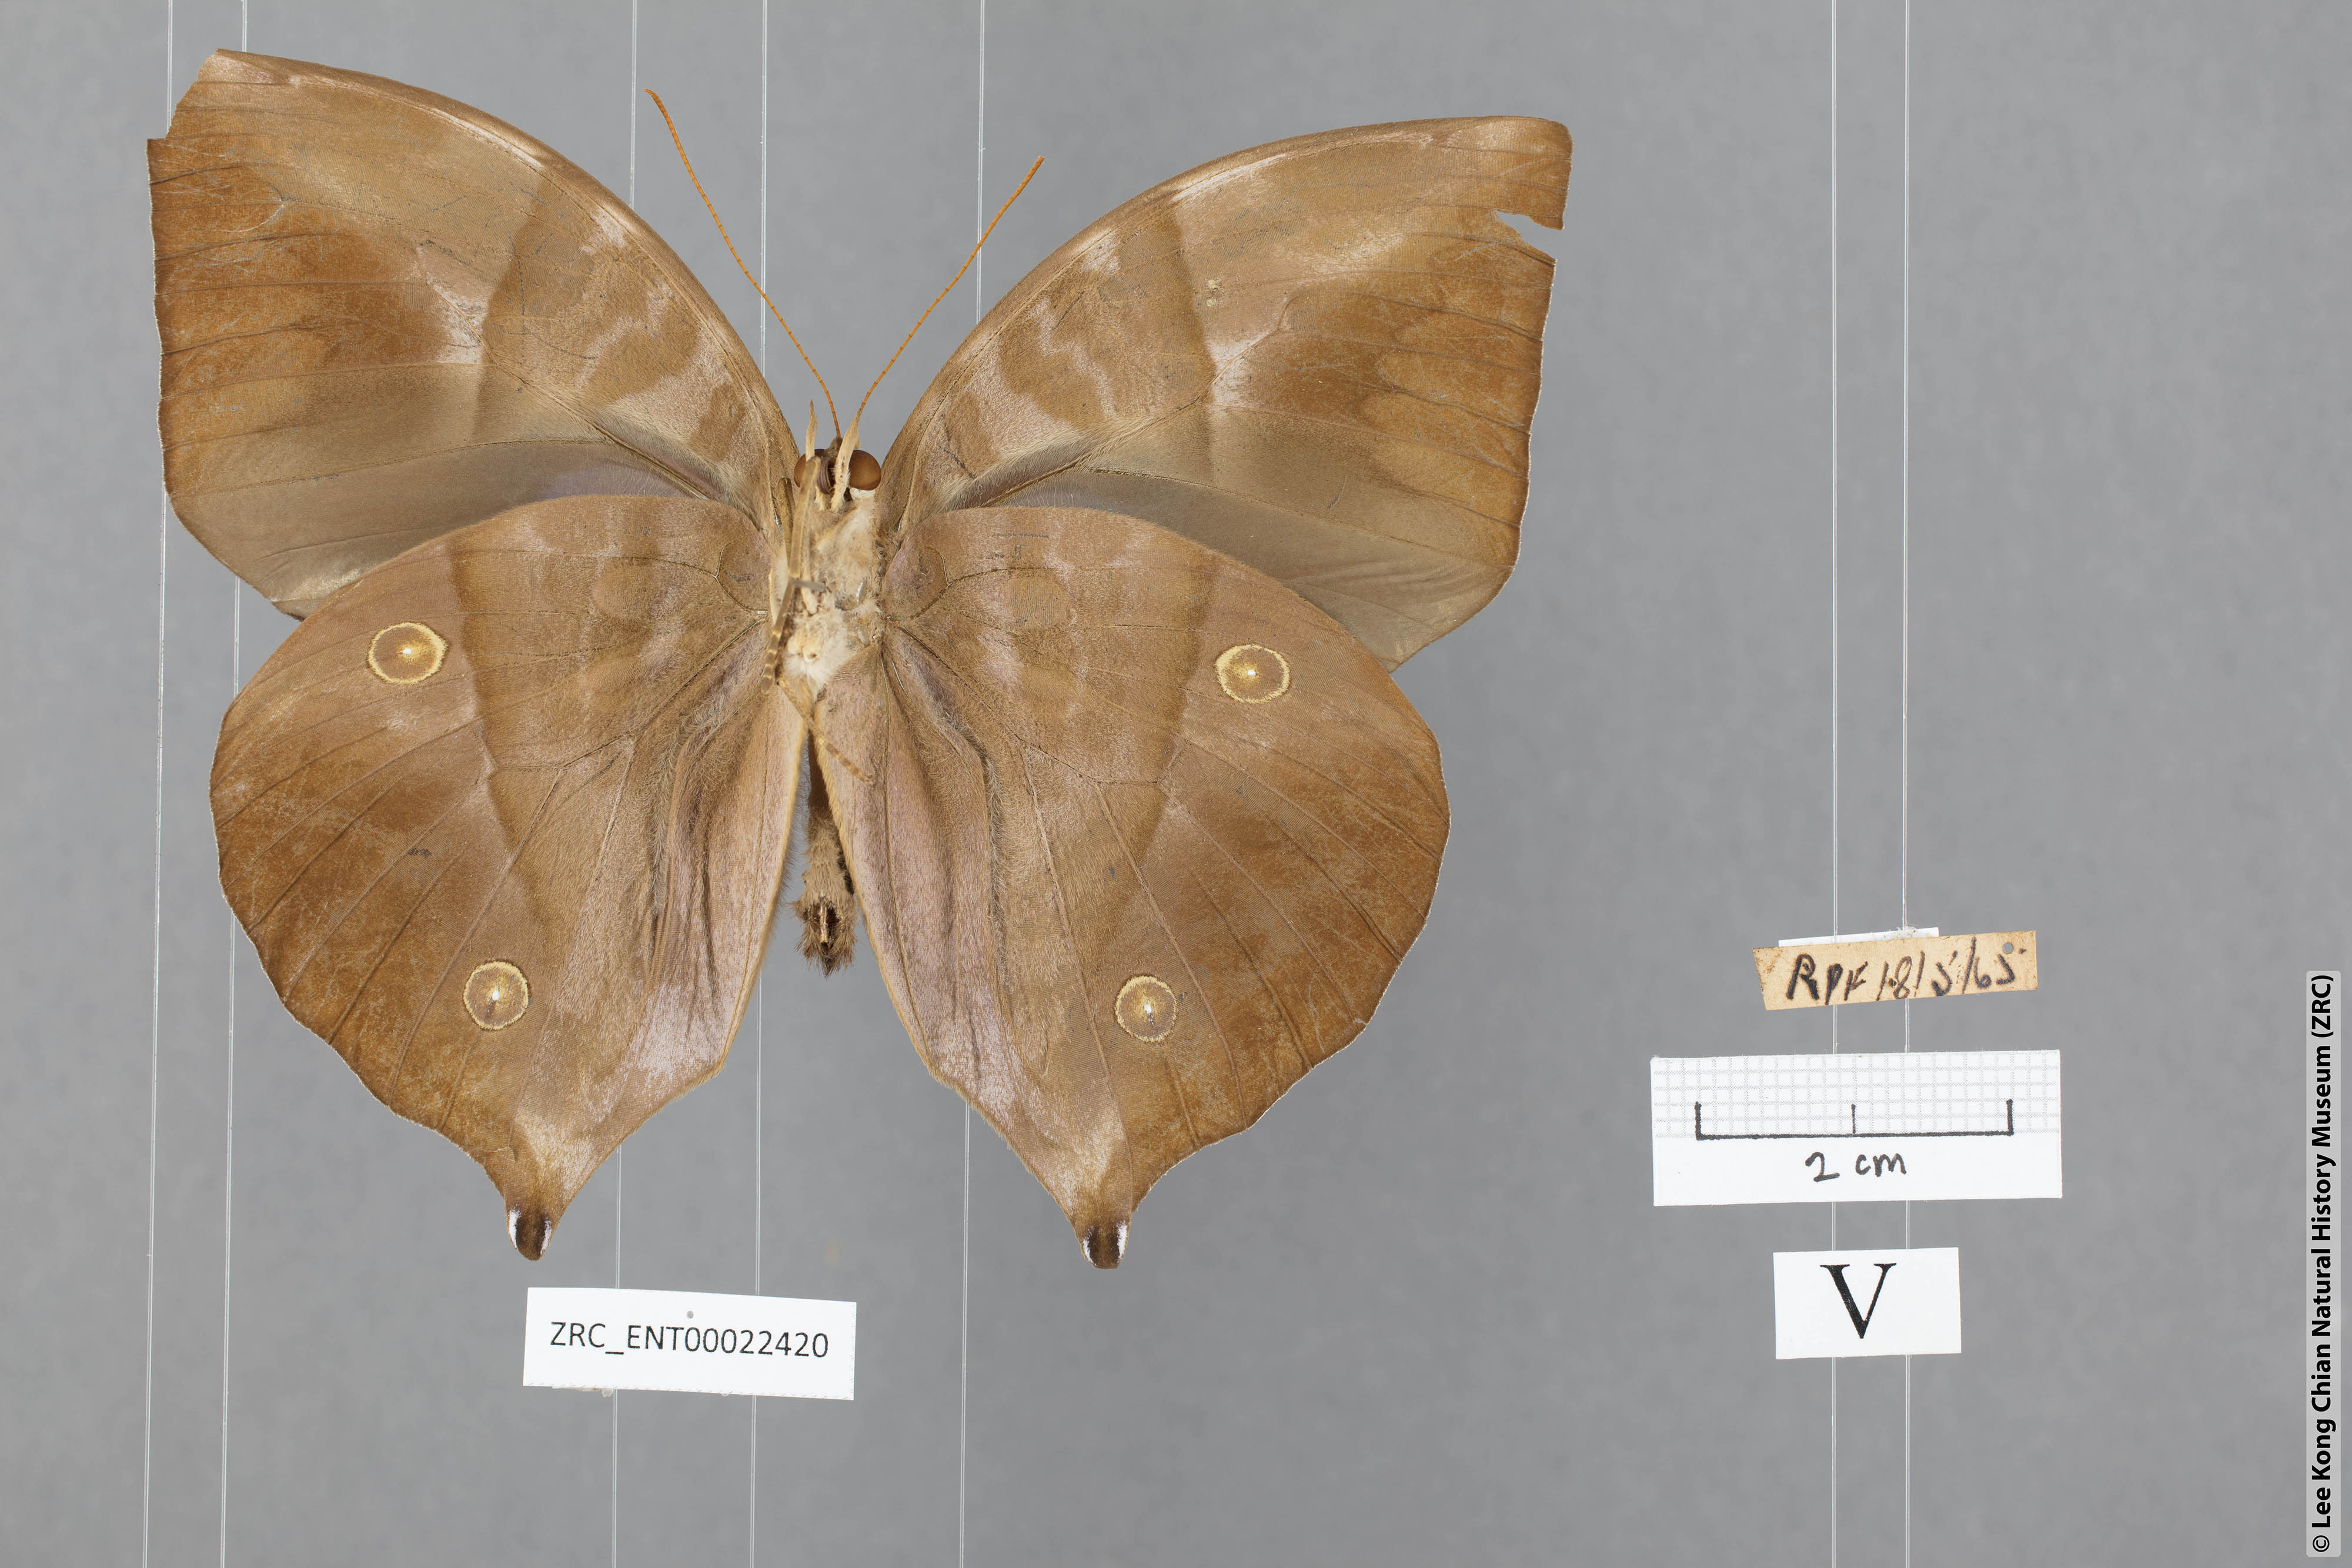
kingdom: Animalia
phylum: Arthropoda
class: Insecta
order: Lepidoptera
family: Nymphalidae
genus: Zeuxidia
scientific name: Zeuxidia ameythystus
